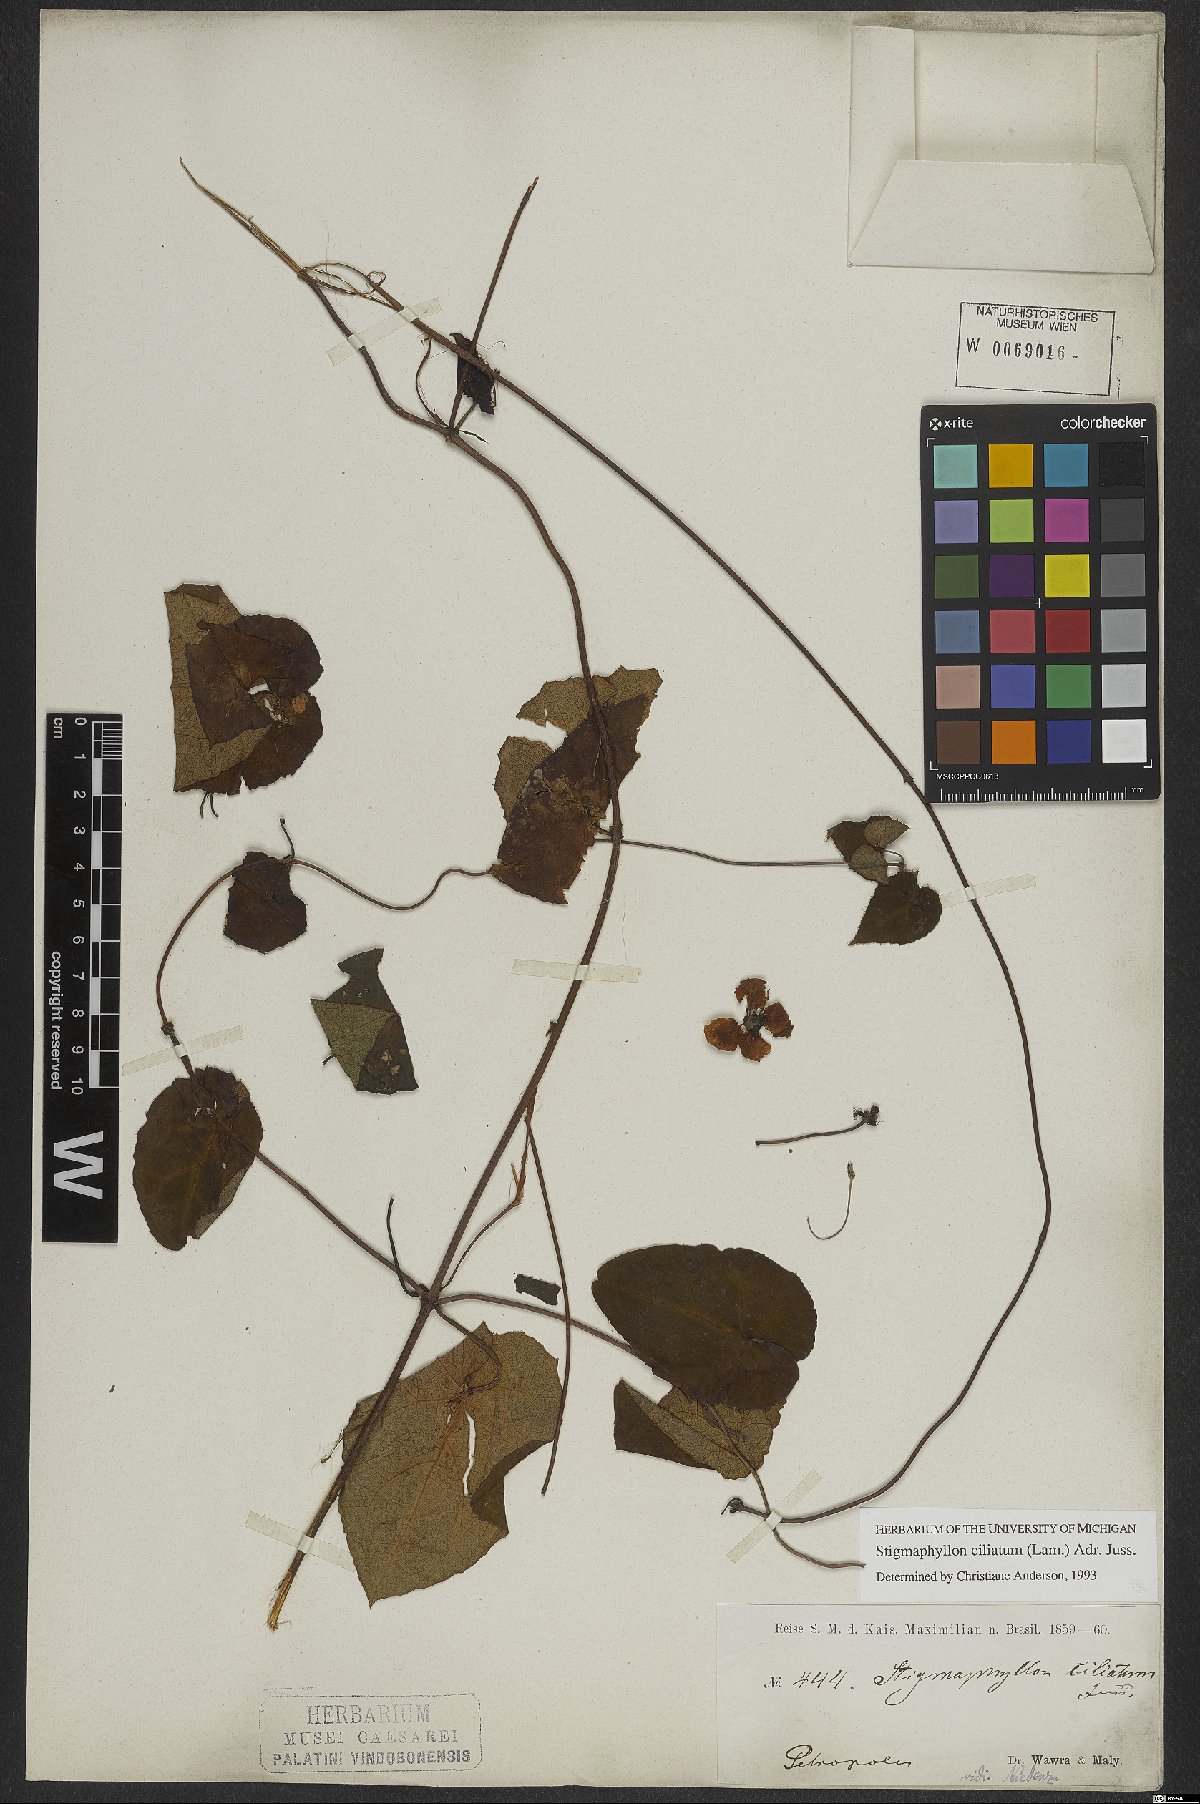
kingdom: Plantae
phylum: Tracheophyta
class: Magnoliopsida
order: Malpighiales
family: Malpighiaceae
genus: Stigmaphyllon
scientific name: Stigmaphyllon ciliatum
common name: Amazonvine
